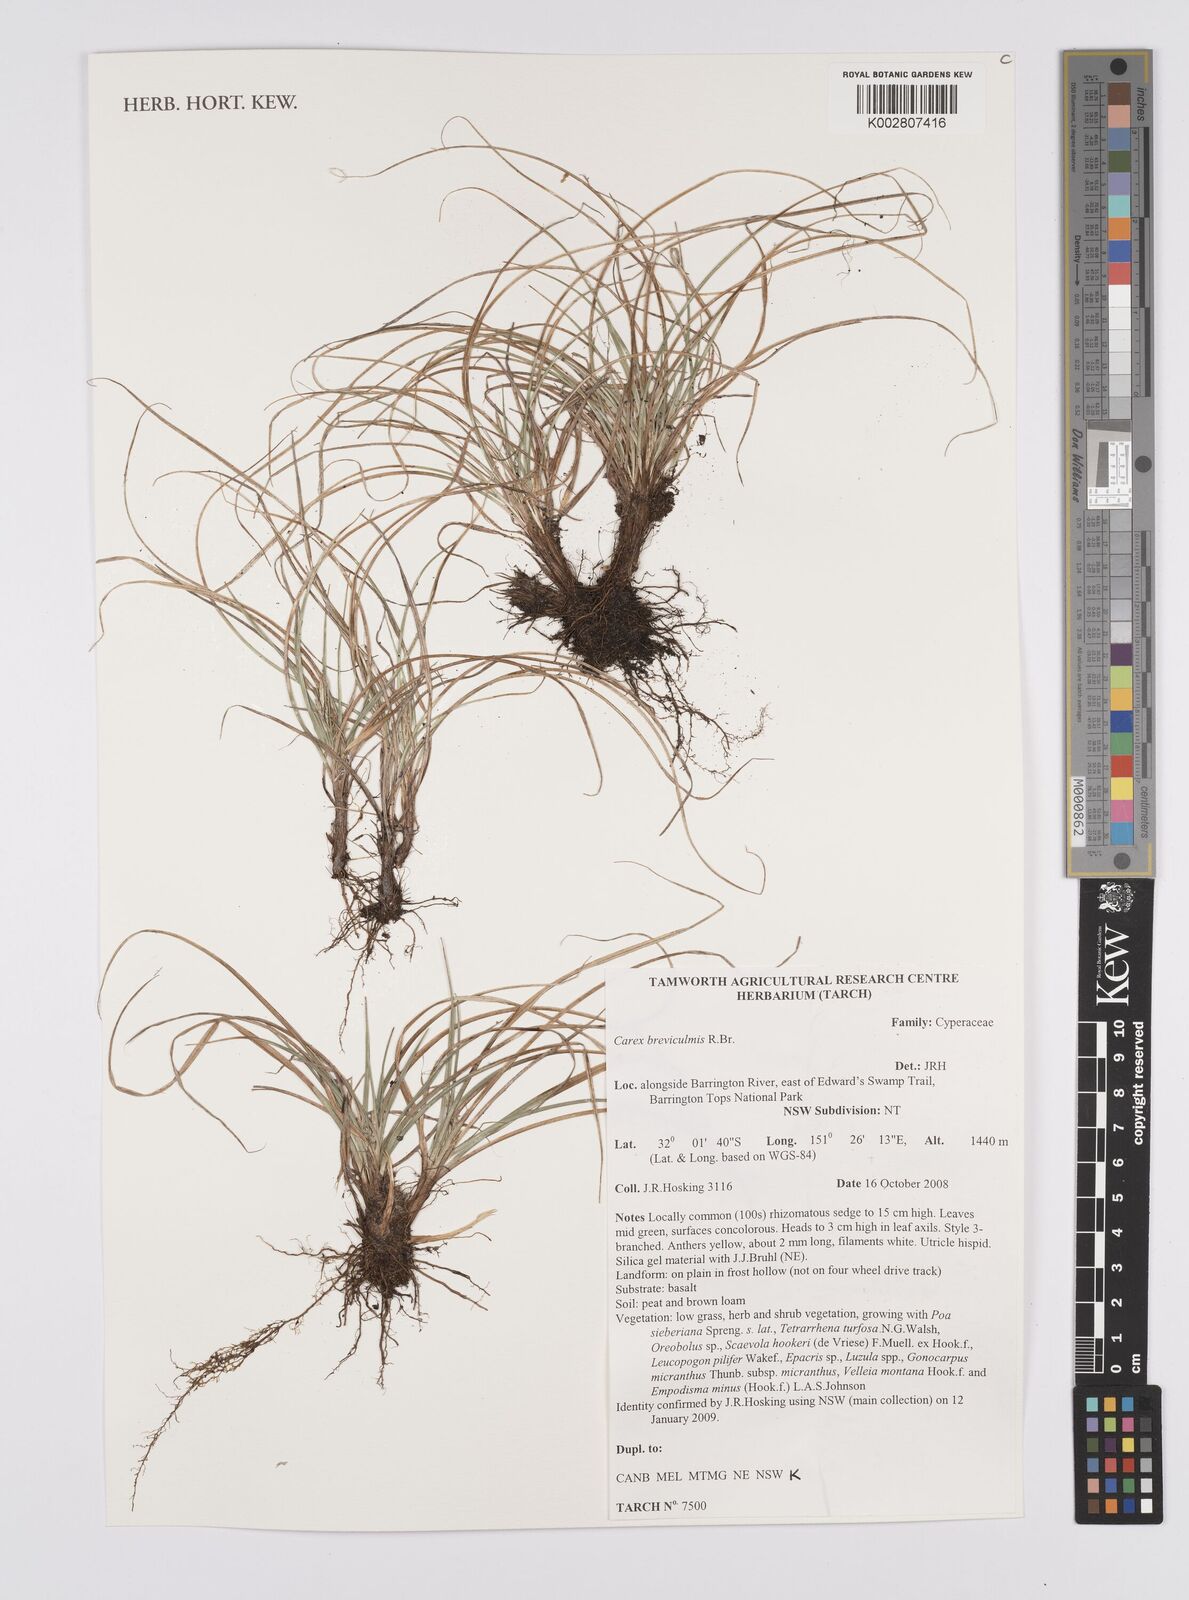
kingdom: Plantae
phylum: Tracheophyta
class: Liliopsida
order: Poales
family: Cyperaceae
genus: Carex
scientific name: Carex breviculmis
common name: Asian shortstem sedge
